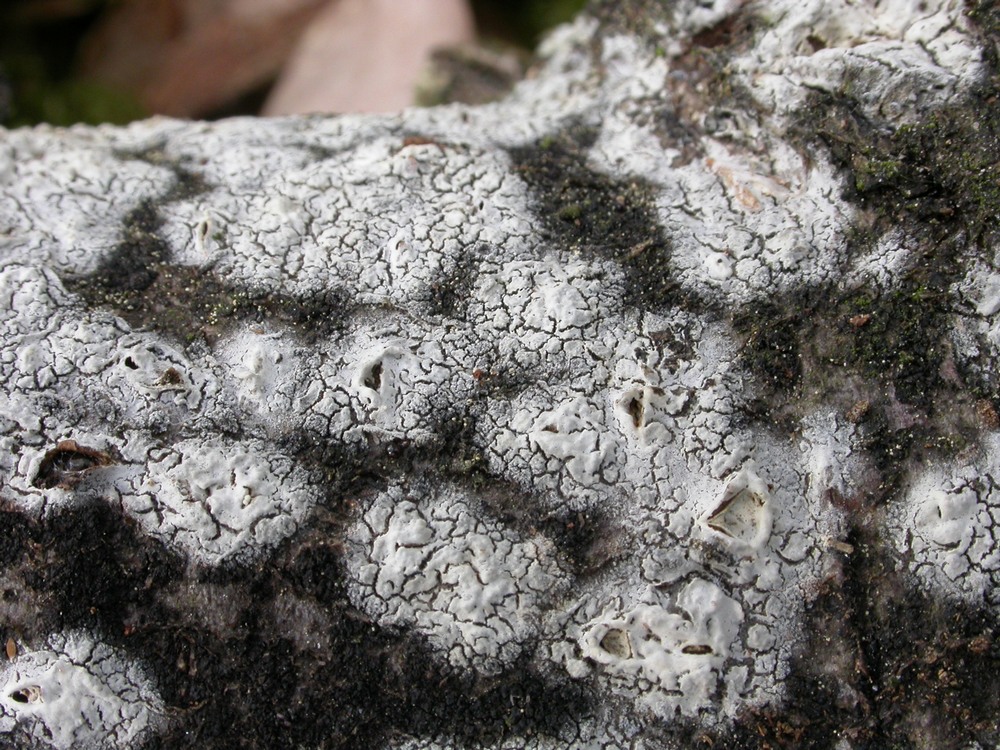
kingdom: Fungi
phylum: Basidiomycota
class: Agaricomycetes
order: Corticiales
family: Corticiaceae
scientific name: Corticiaceae
